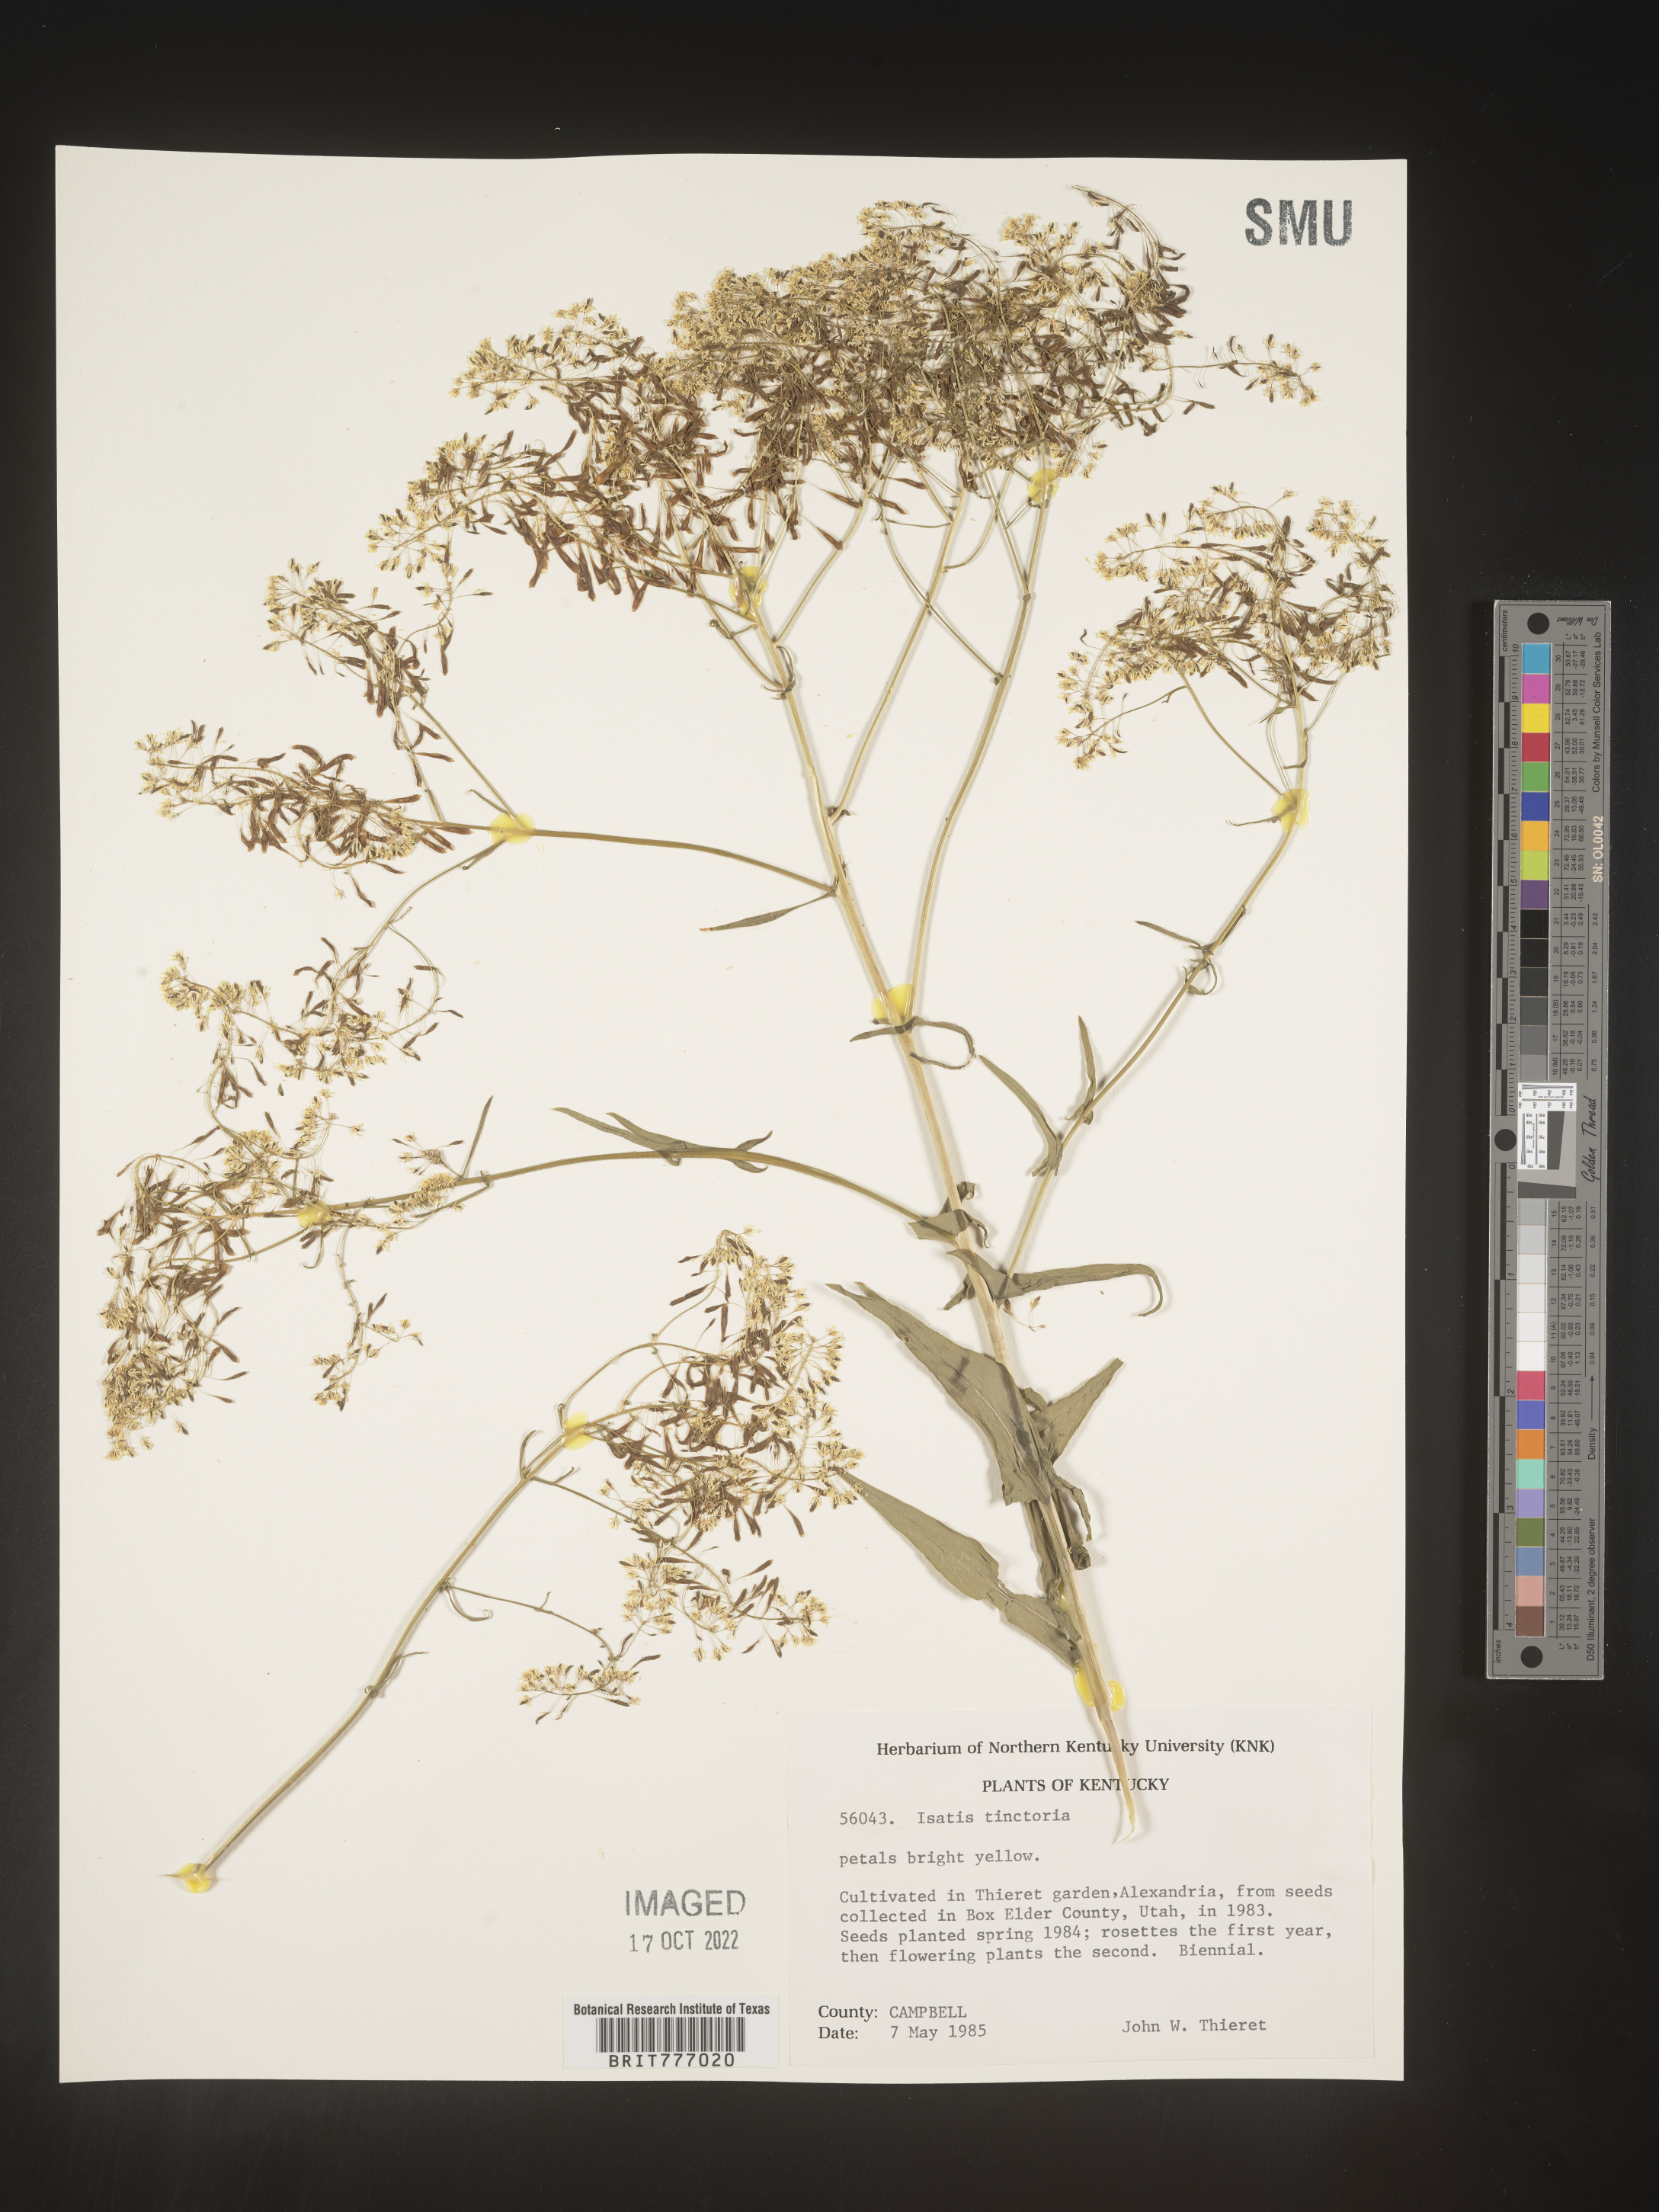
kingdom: Plantae
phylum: Tracheophyta
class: Magnoliopsida
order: Brassicales
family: Brassicaceae
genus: Isatis
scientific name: Isatis
